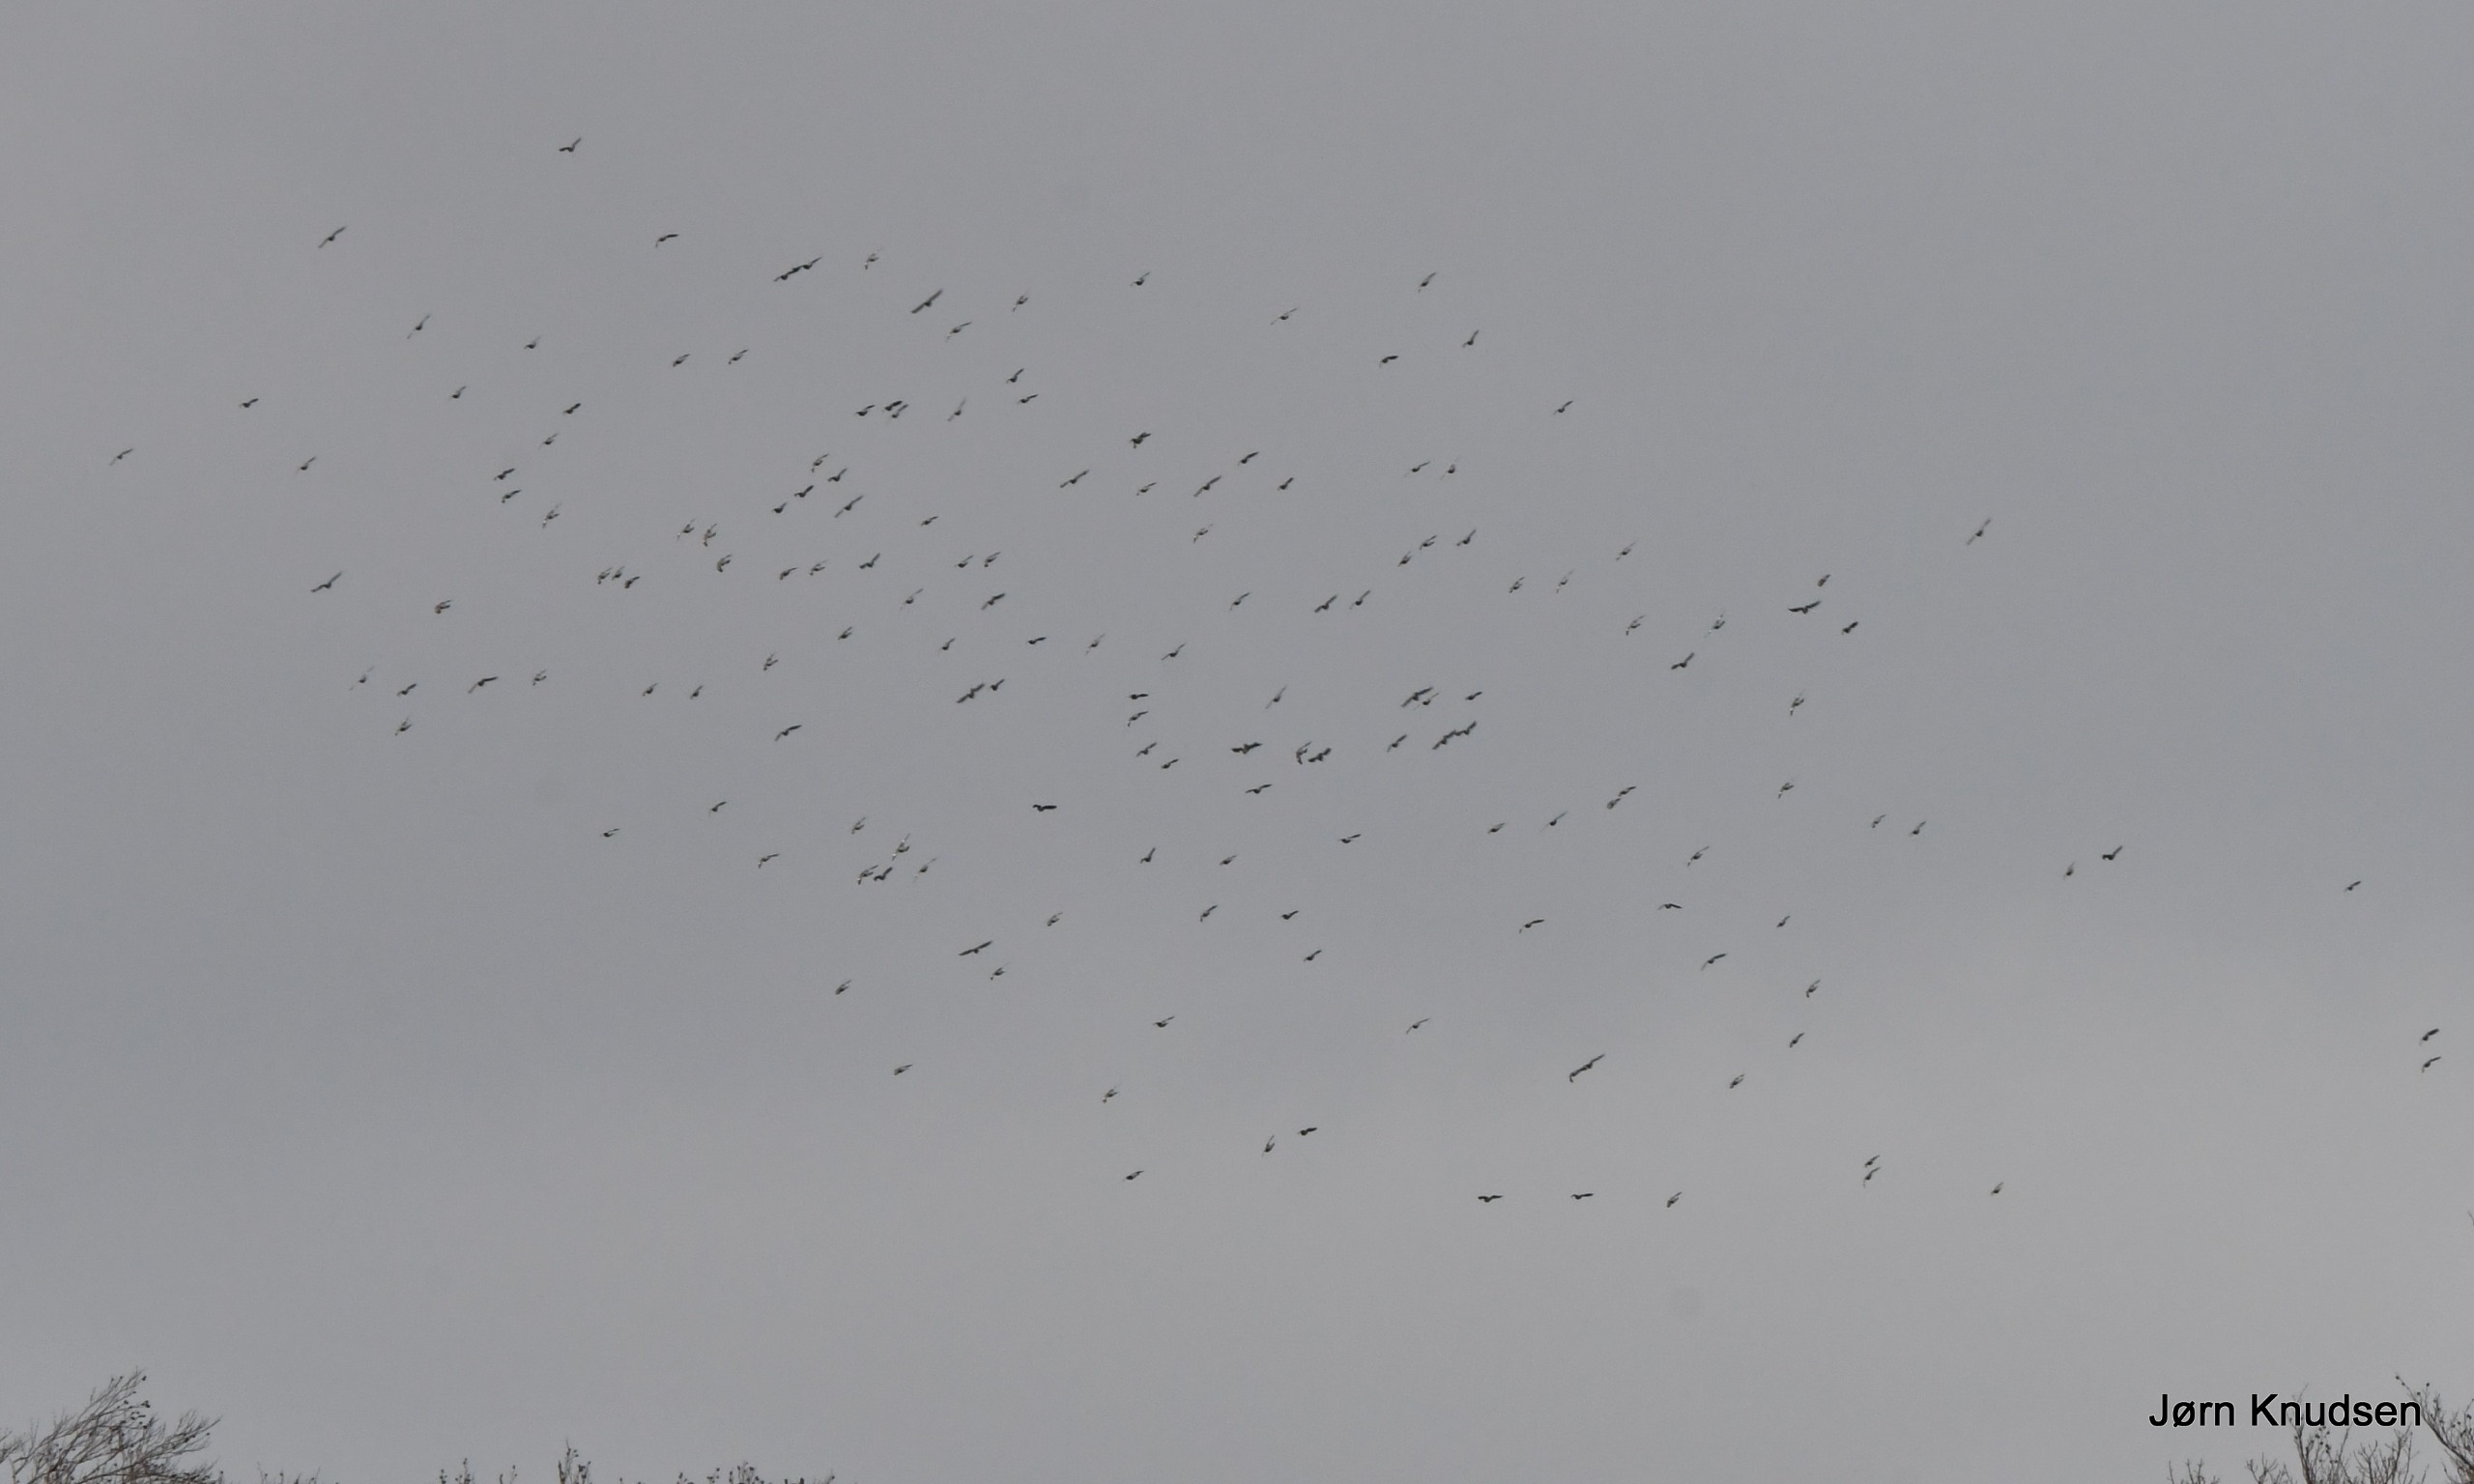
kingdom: Animalia
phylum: Chordata
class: Aves
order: Columbiformes
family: Columbidae
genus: Columba
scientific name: Columba palumbus
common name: Ringdue
